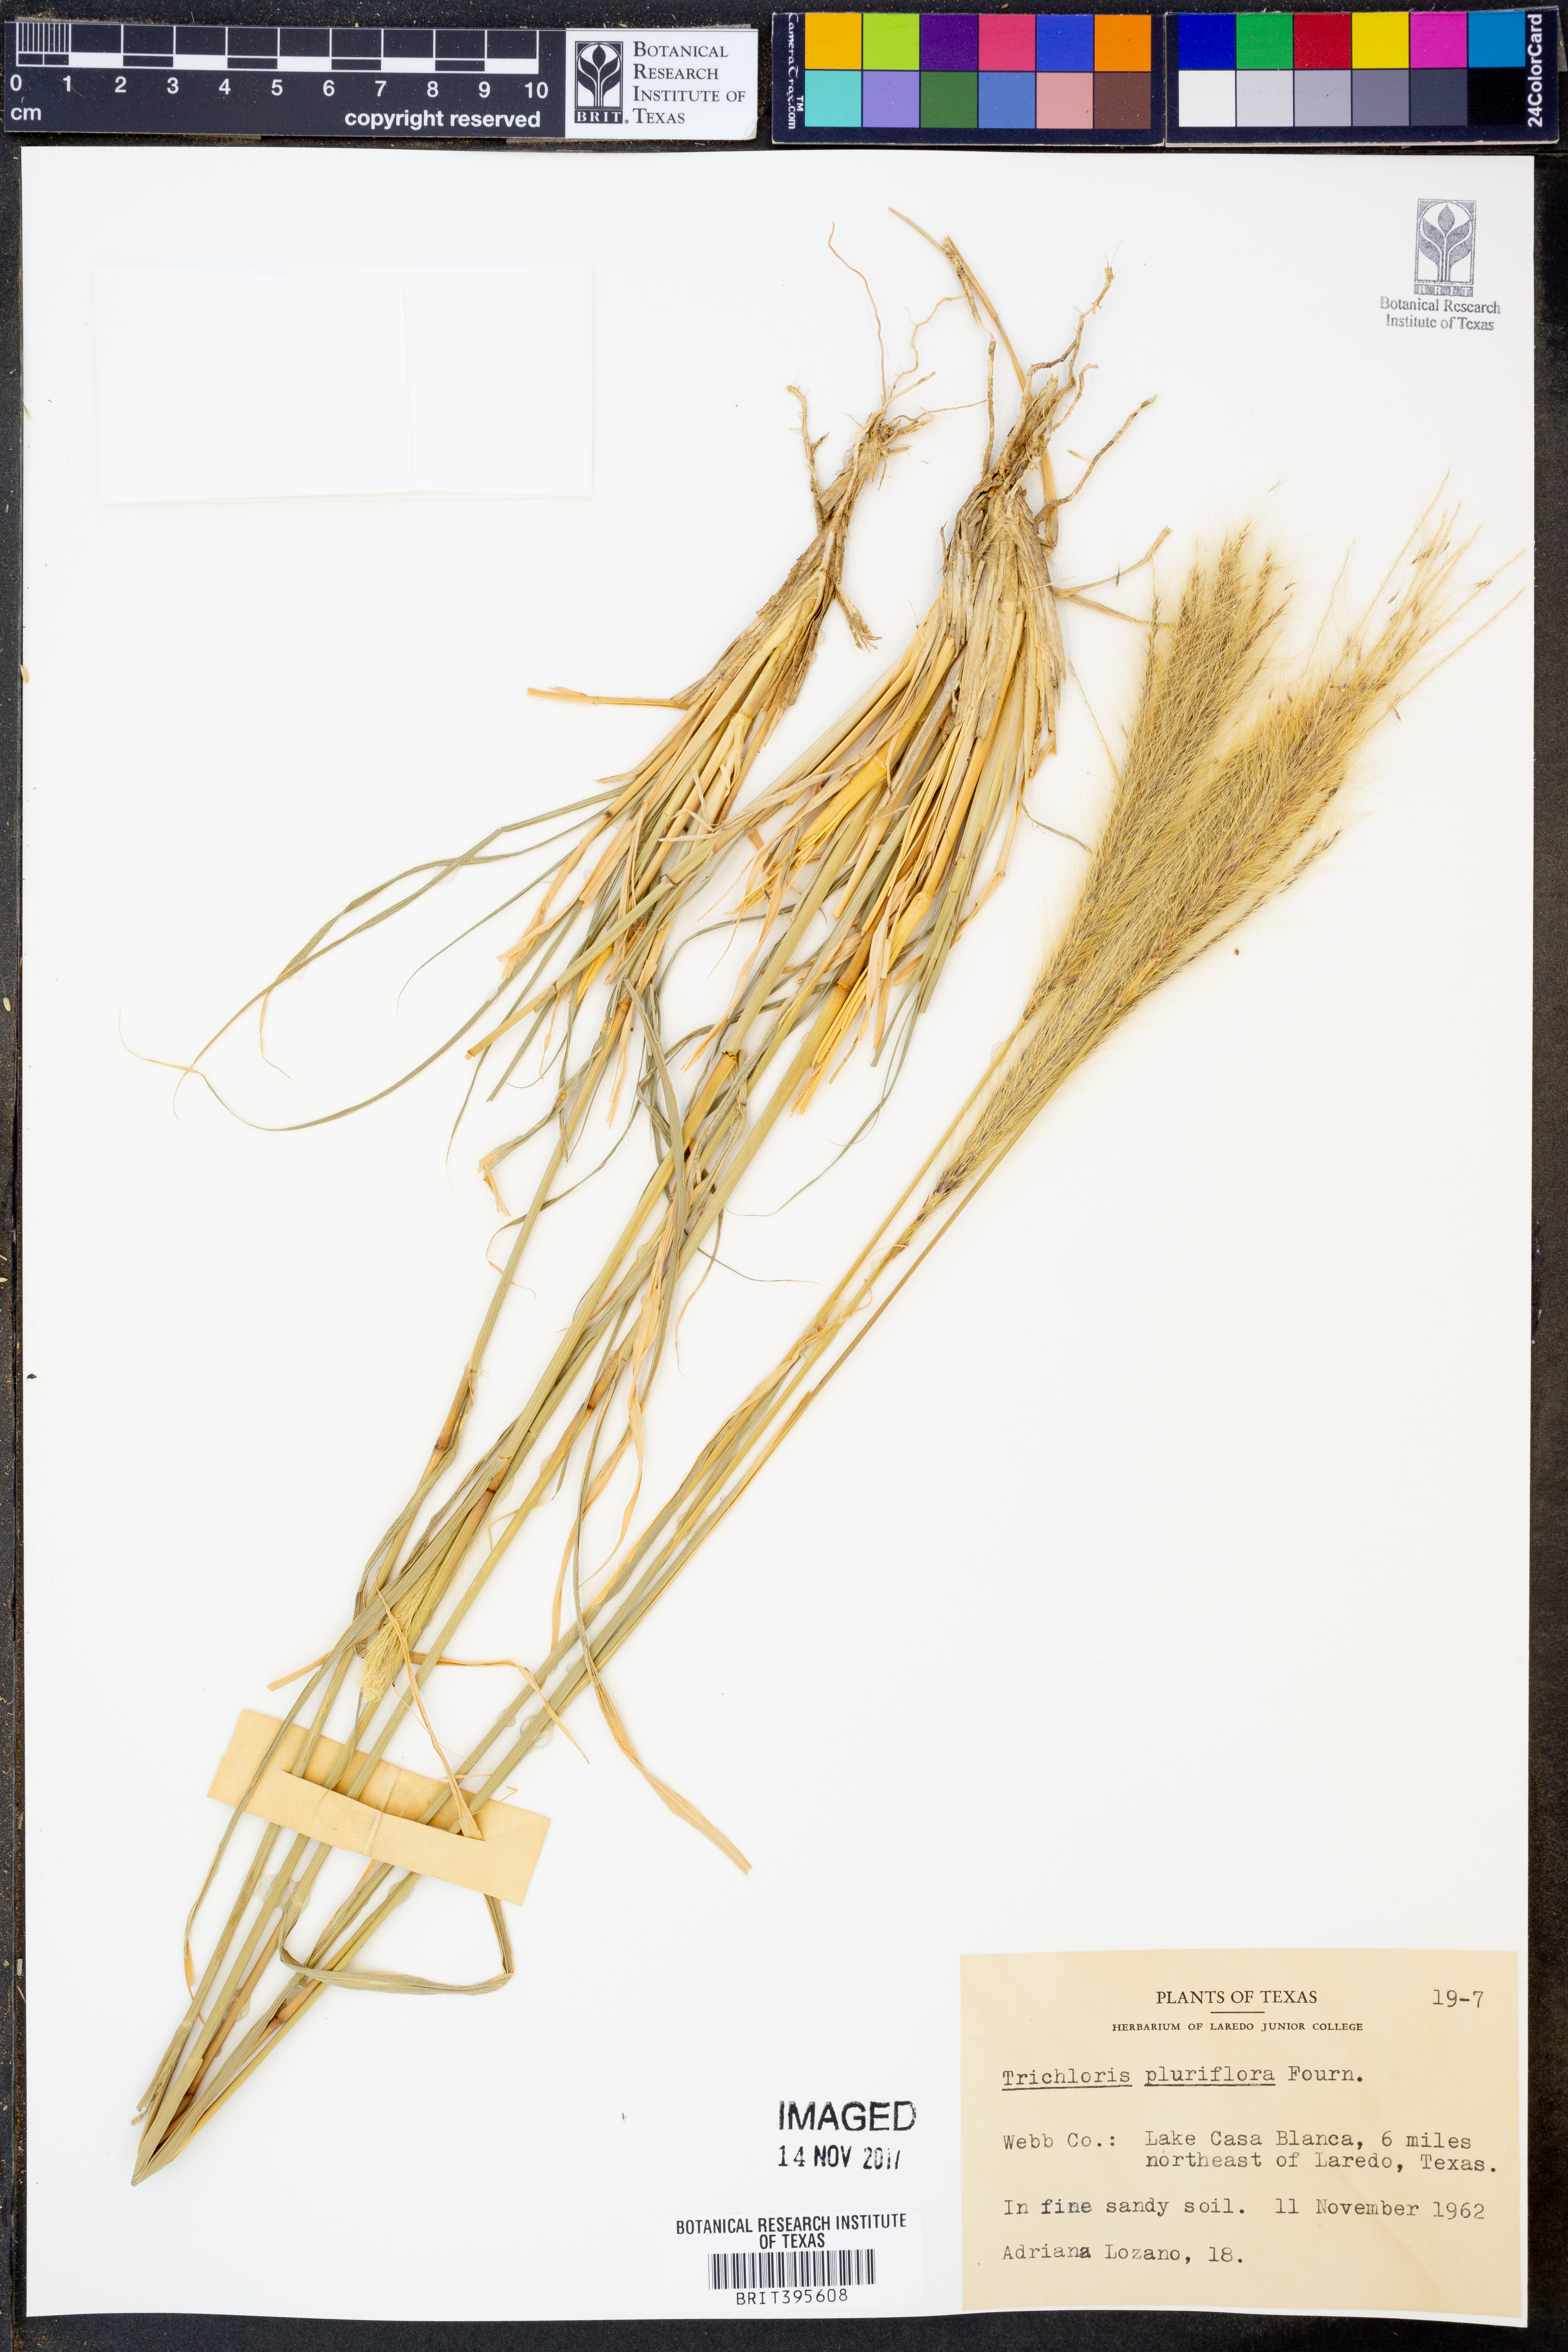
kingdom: Plantae
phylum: Tracheophyta
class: Liliopsida
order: Poales
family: Poaceae
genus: Leptochloa
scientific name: Leptochloa pluriflora
